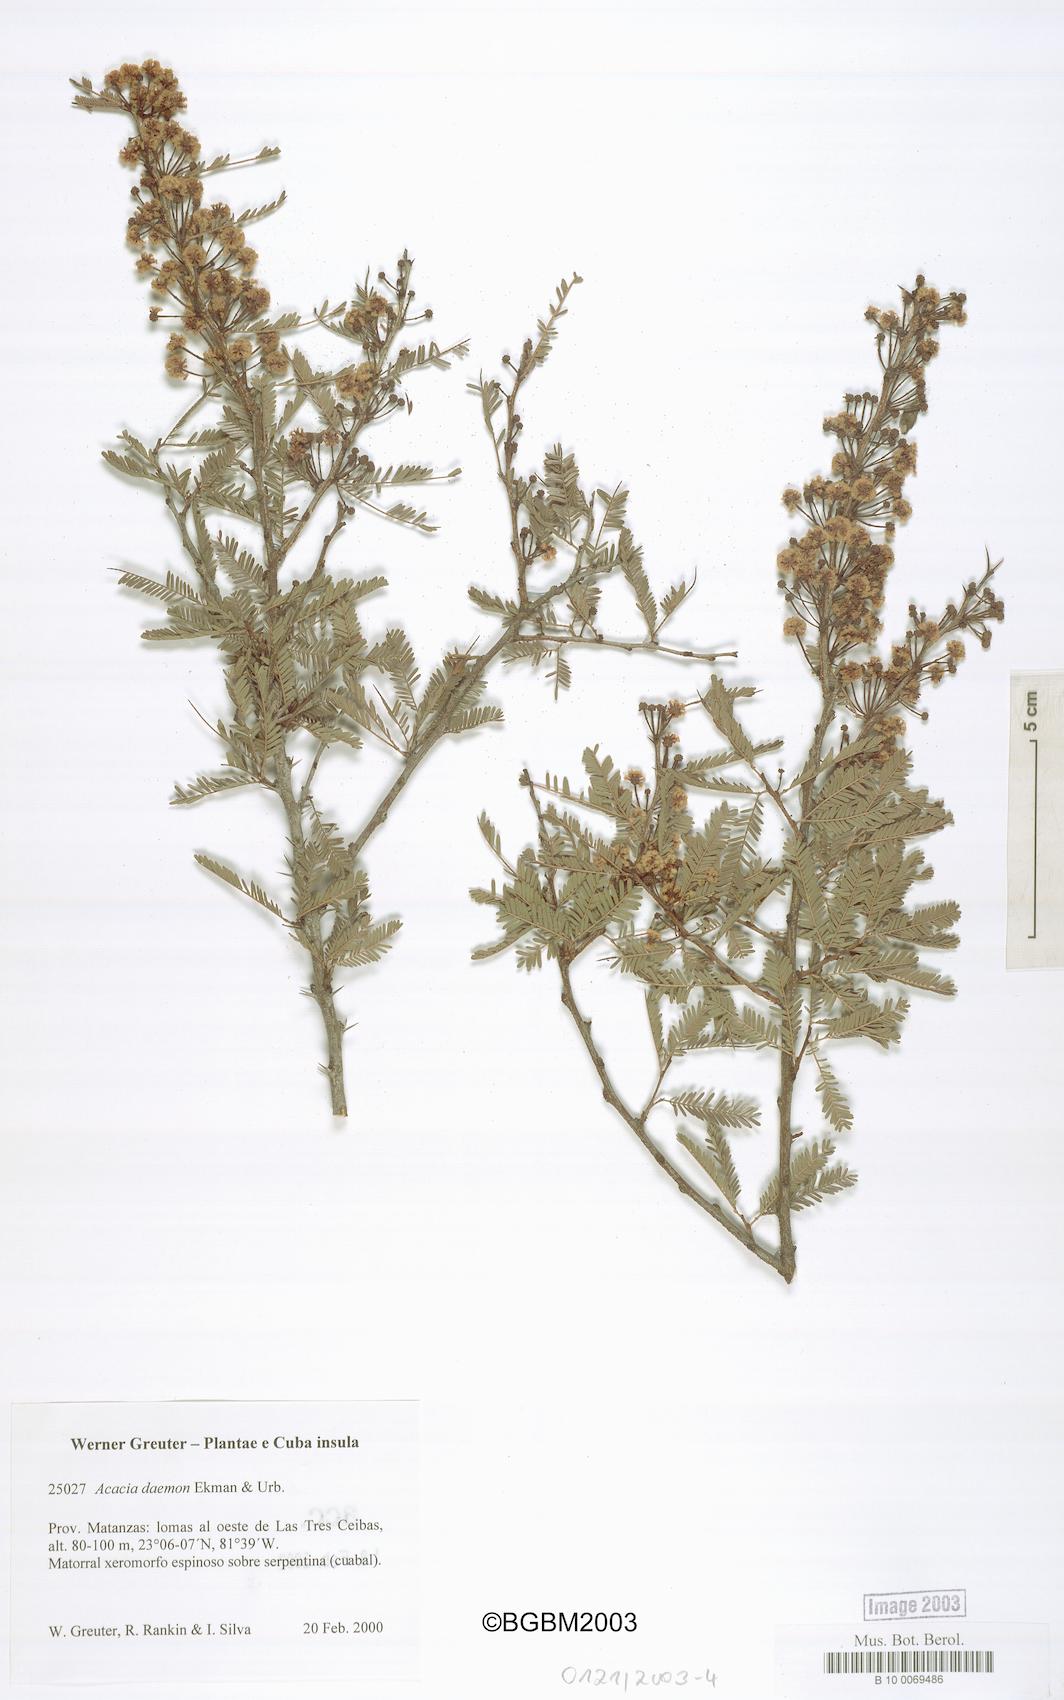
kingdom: Plantae
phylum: Tracheophyta
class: Magnoliopsida
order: Fabales
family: Fabaceae
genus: Vachellia
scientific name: Vachellia daemon
